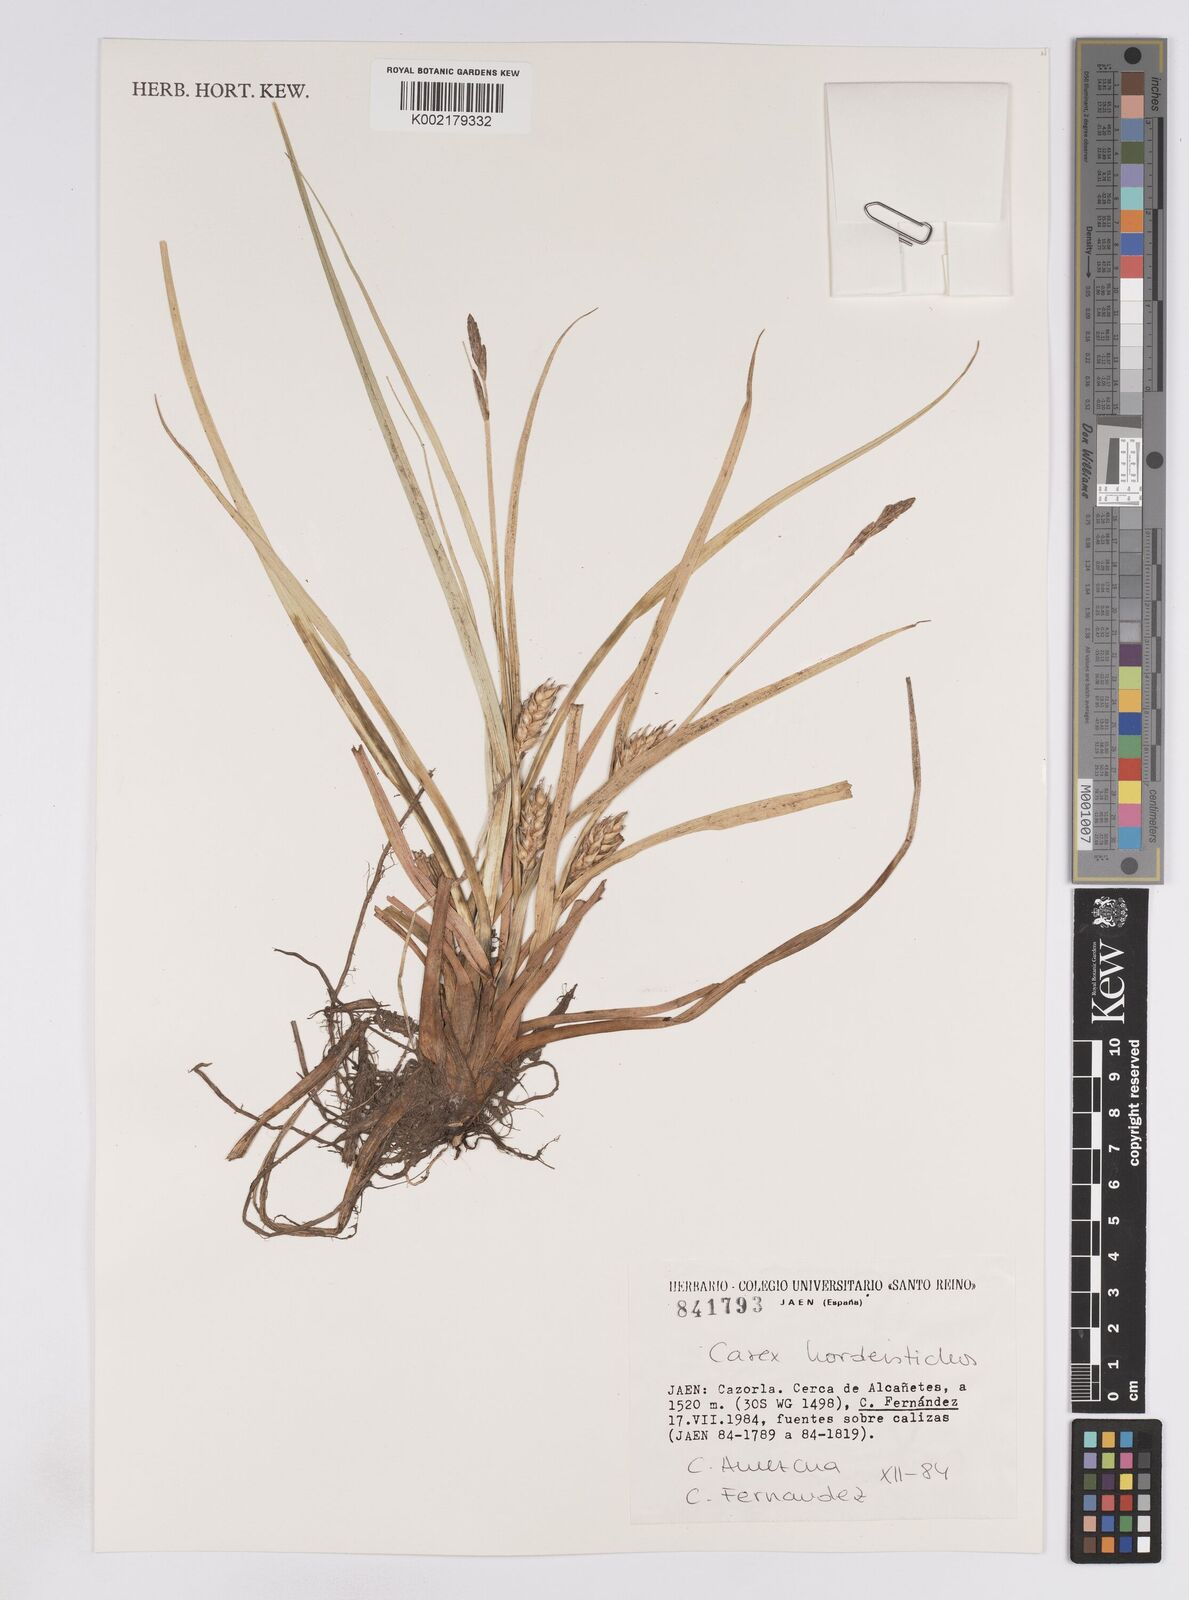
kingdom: Plantae
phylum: Tracheophyta
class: Liliopsida
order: Poales
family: Cyperaceae
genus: Carex
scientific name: Carex hordeistichos
